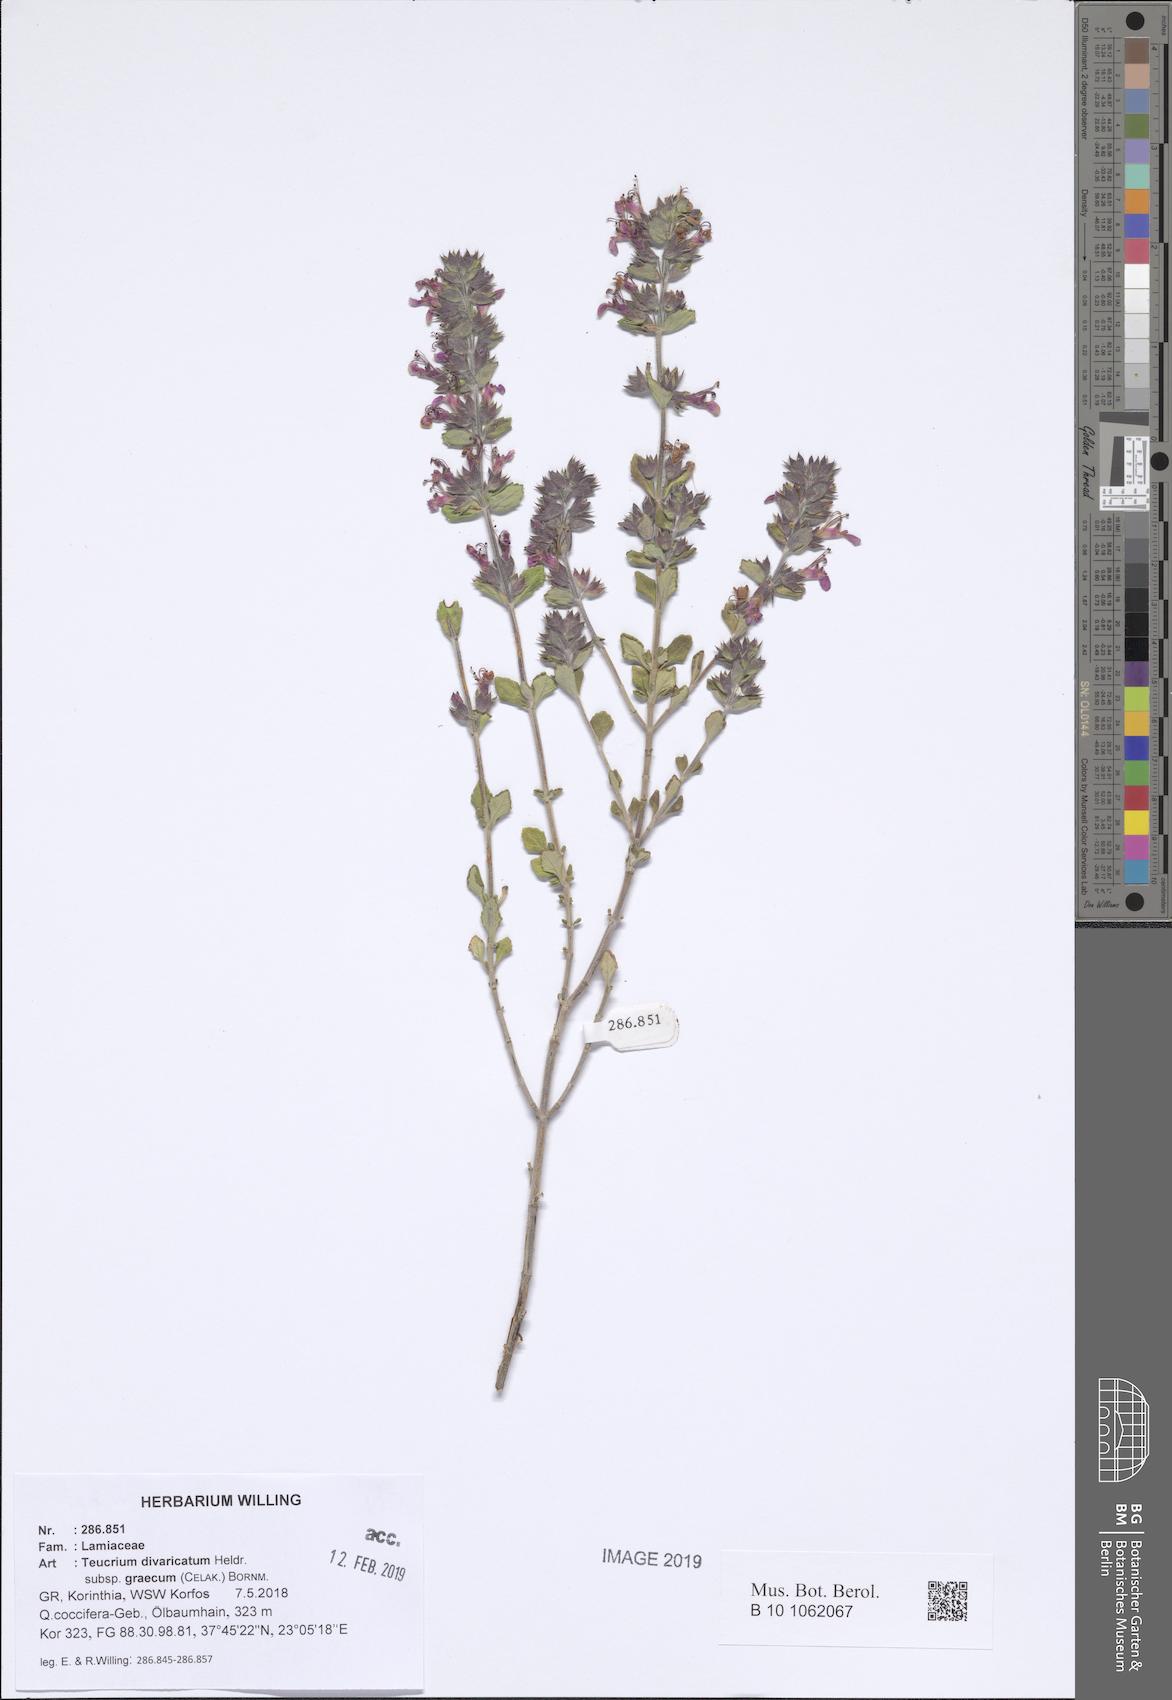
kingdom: Plantae
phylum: Tracheophyta
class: Magnoliopsida
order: Lamiales
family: Lamiaceae
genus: Teucrium
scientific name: Teucrium divaricatum
